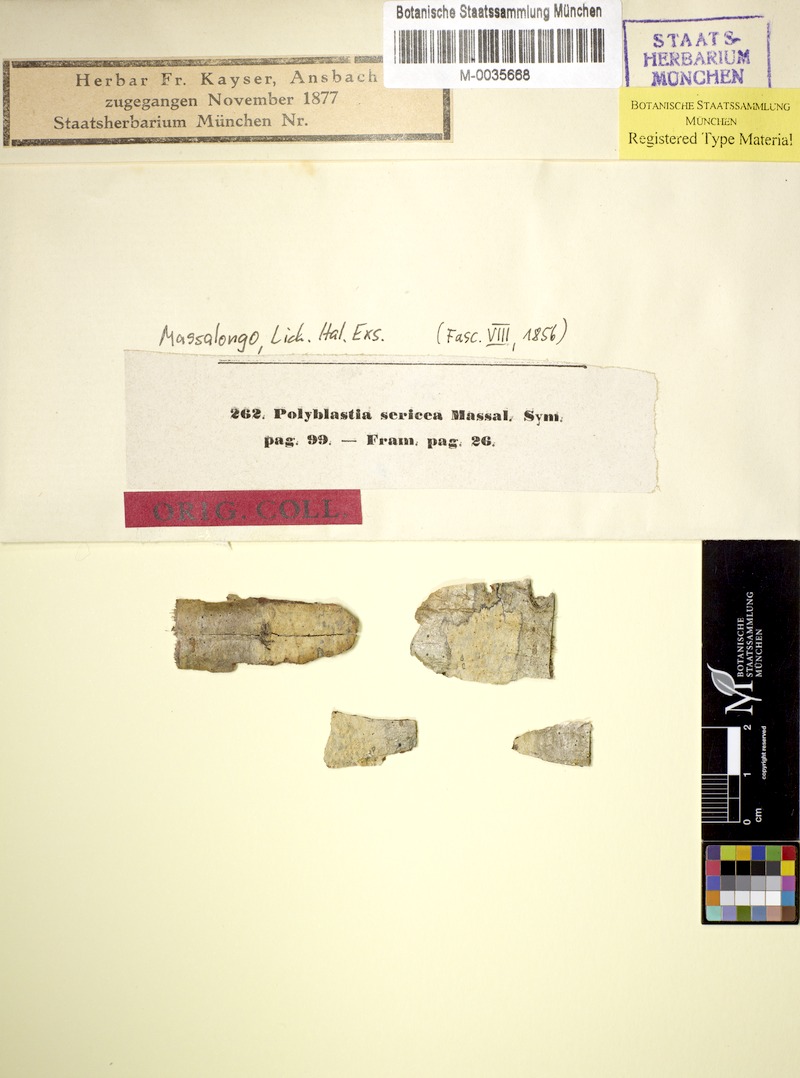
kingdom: Fungi
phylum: Ascomycota
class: Lecanoromycetes
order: Ostropales
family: Thelenellaceae
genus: Julella
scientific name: Julella sericea
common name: Silky white stain lichen
